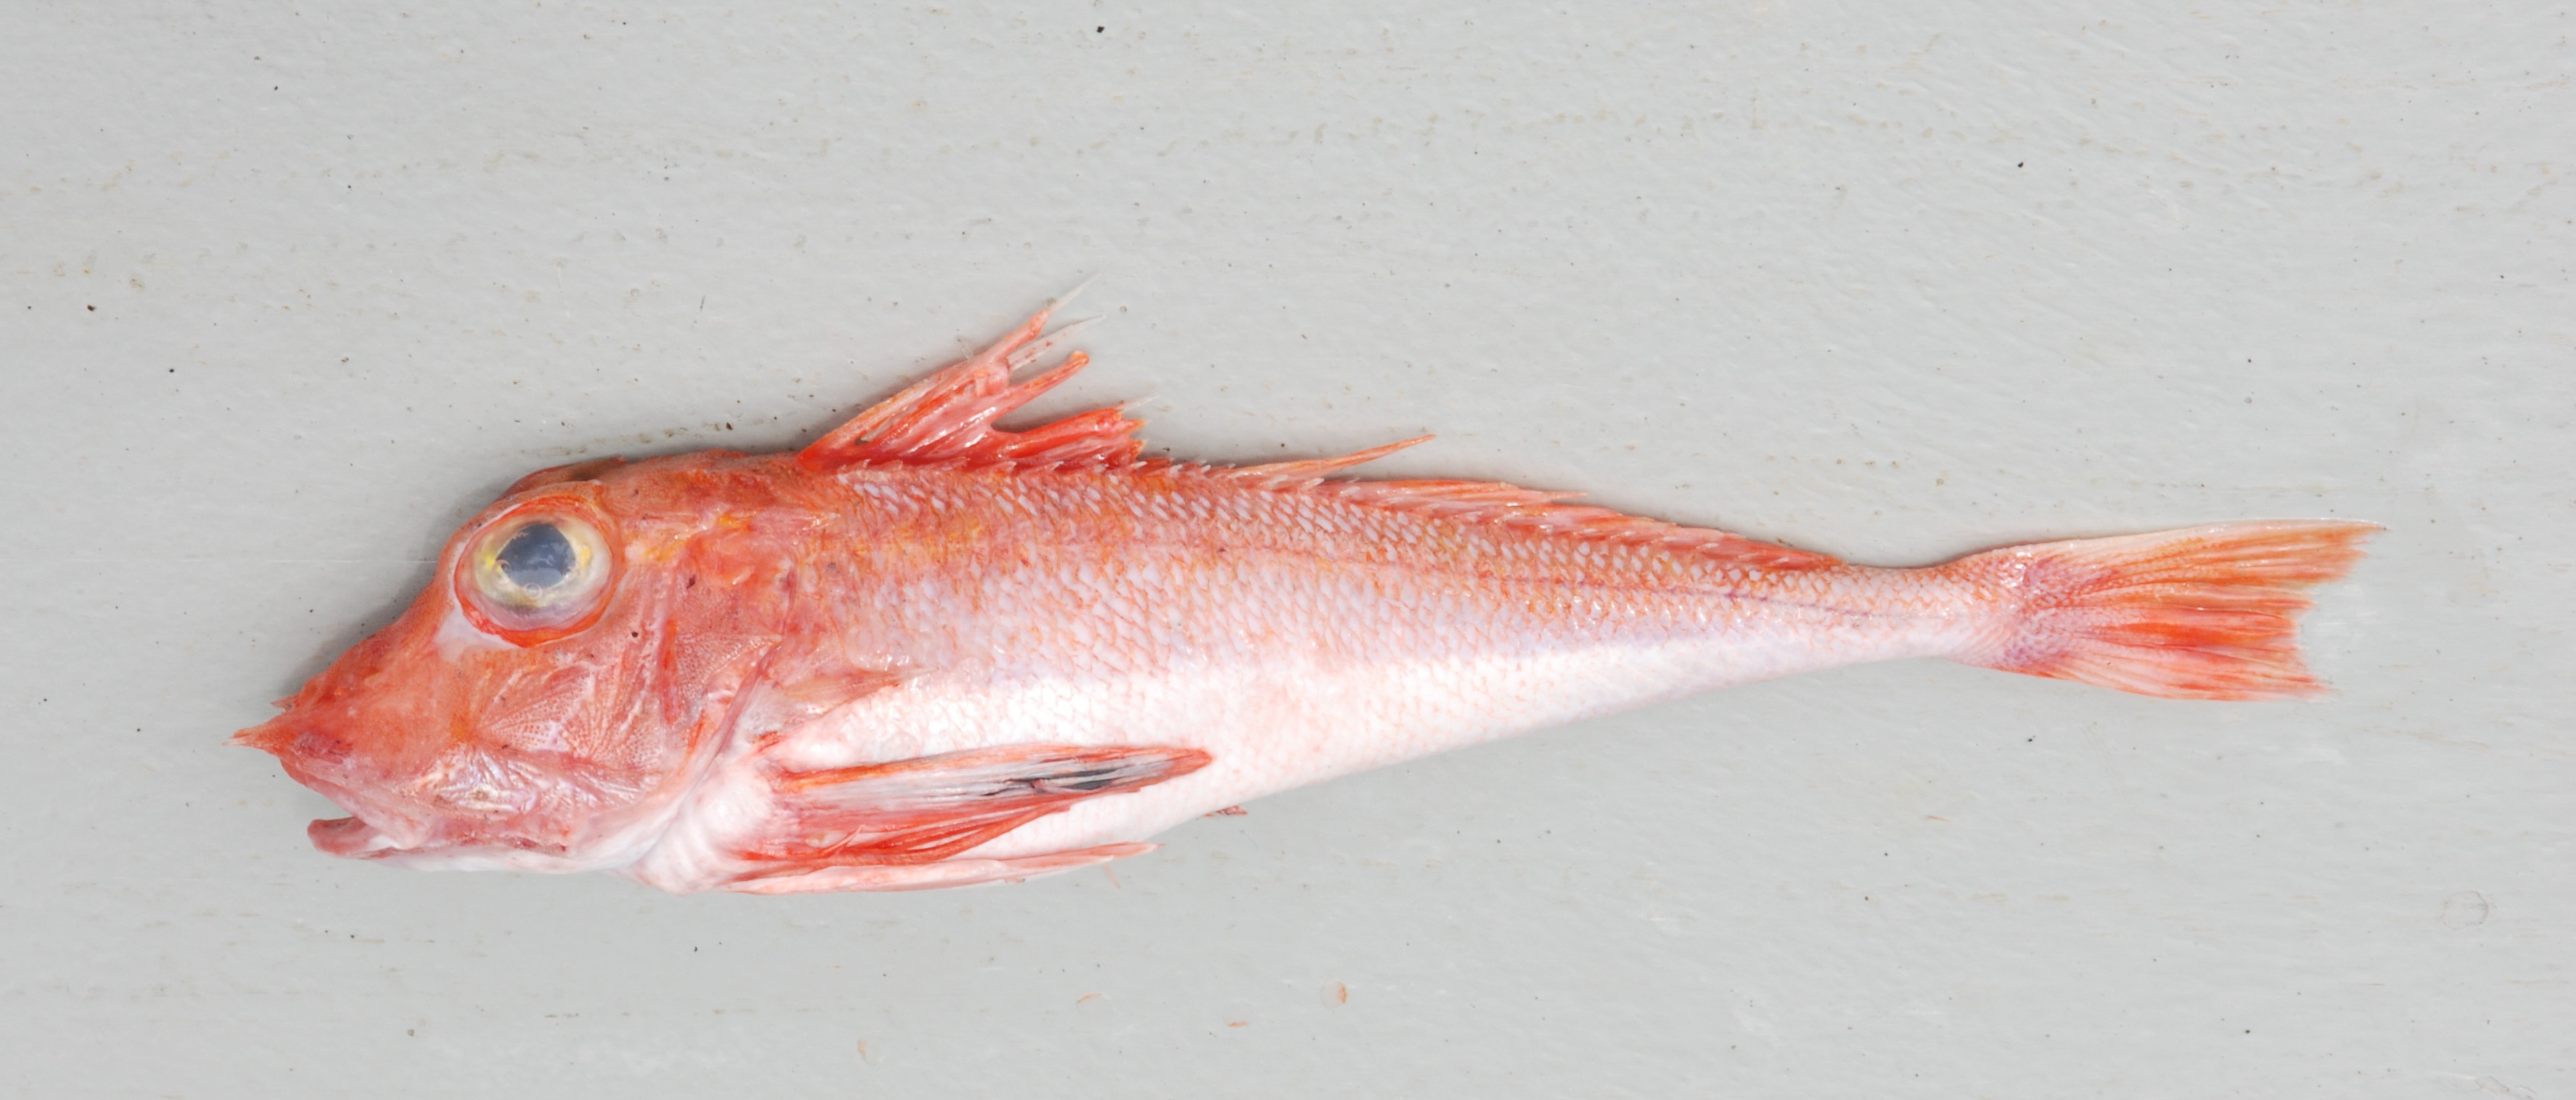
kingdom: Animalia
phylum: Chordata
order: Scorpaeniformes
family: Triglidae
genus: Lepidotrigla
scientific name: Lepidotrigla multispinosa
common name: Spiny gurnard
